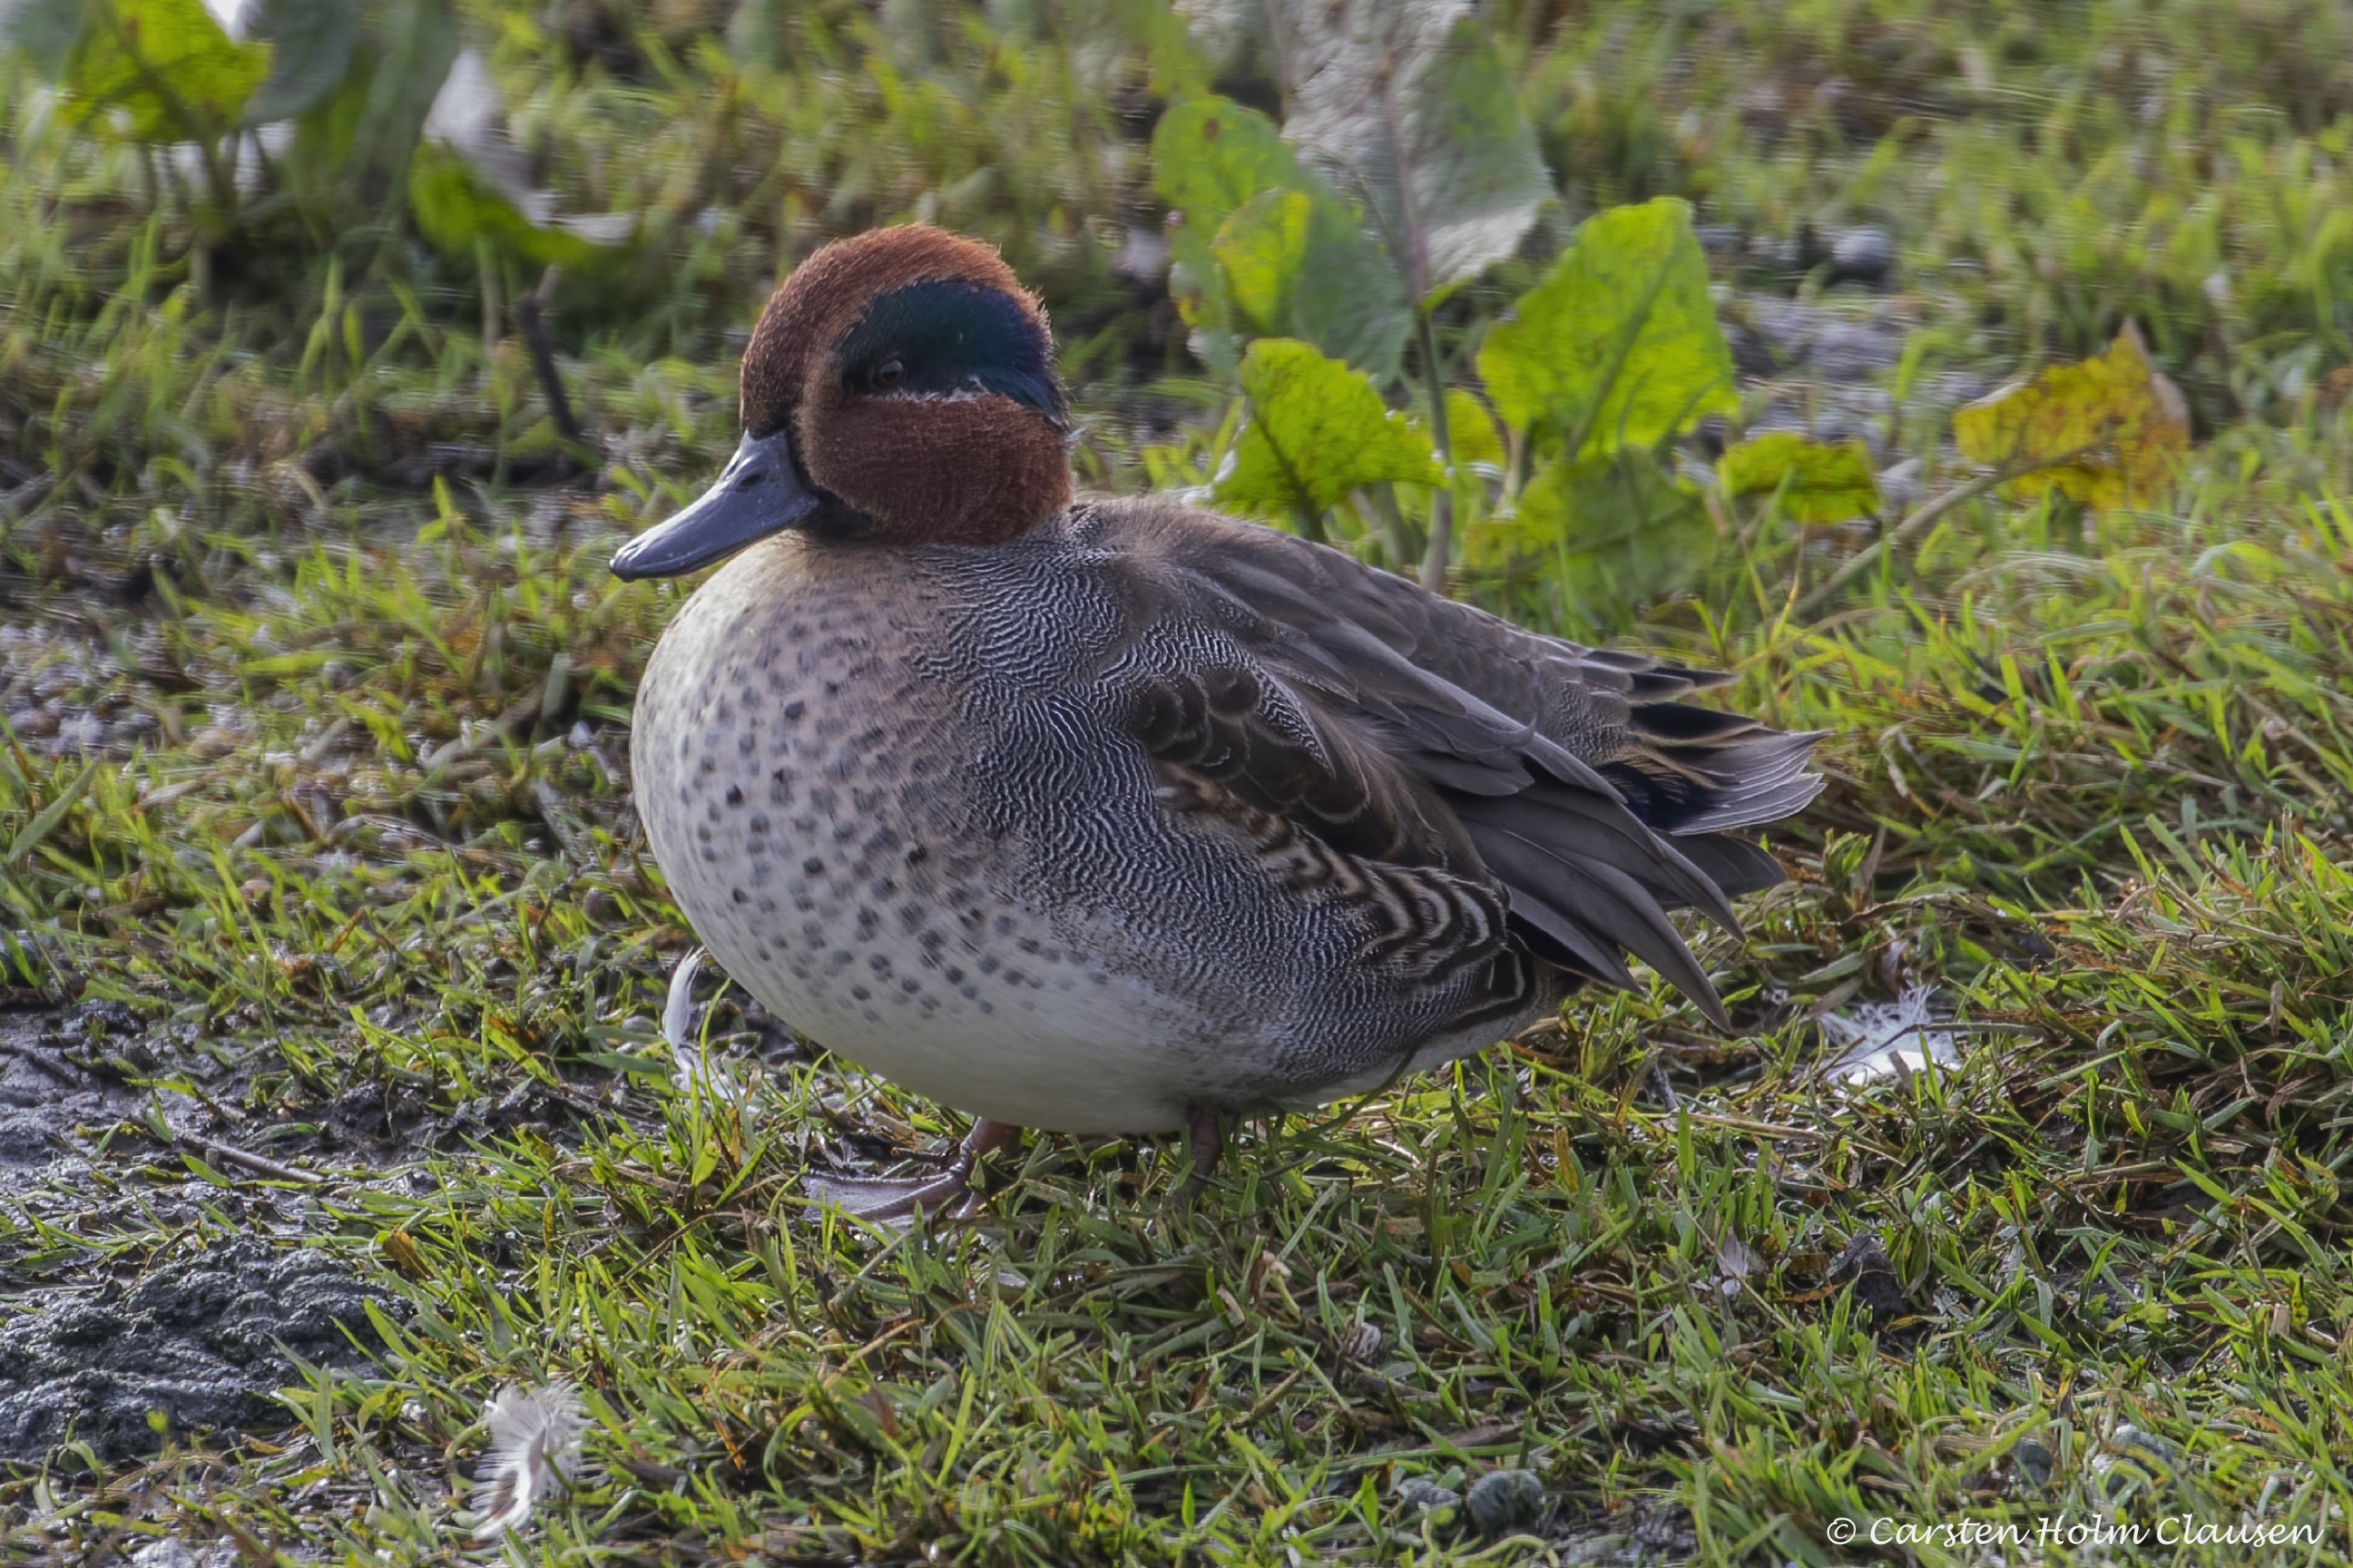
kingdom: Animalia
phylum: Chordata
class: Aves
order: Anseriformes
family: Anatidae
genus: Anas
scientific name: Anas crecca
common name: Krikand
